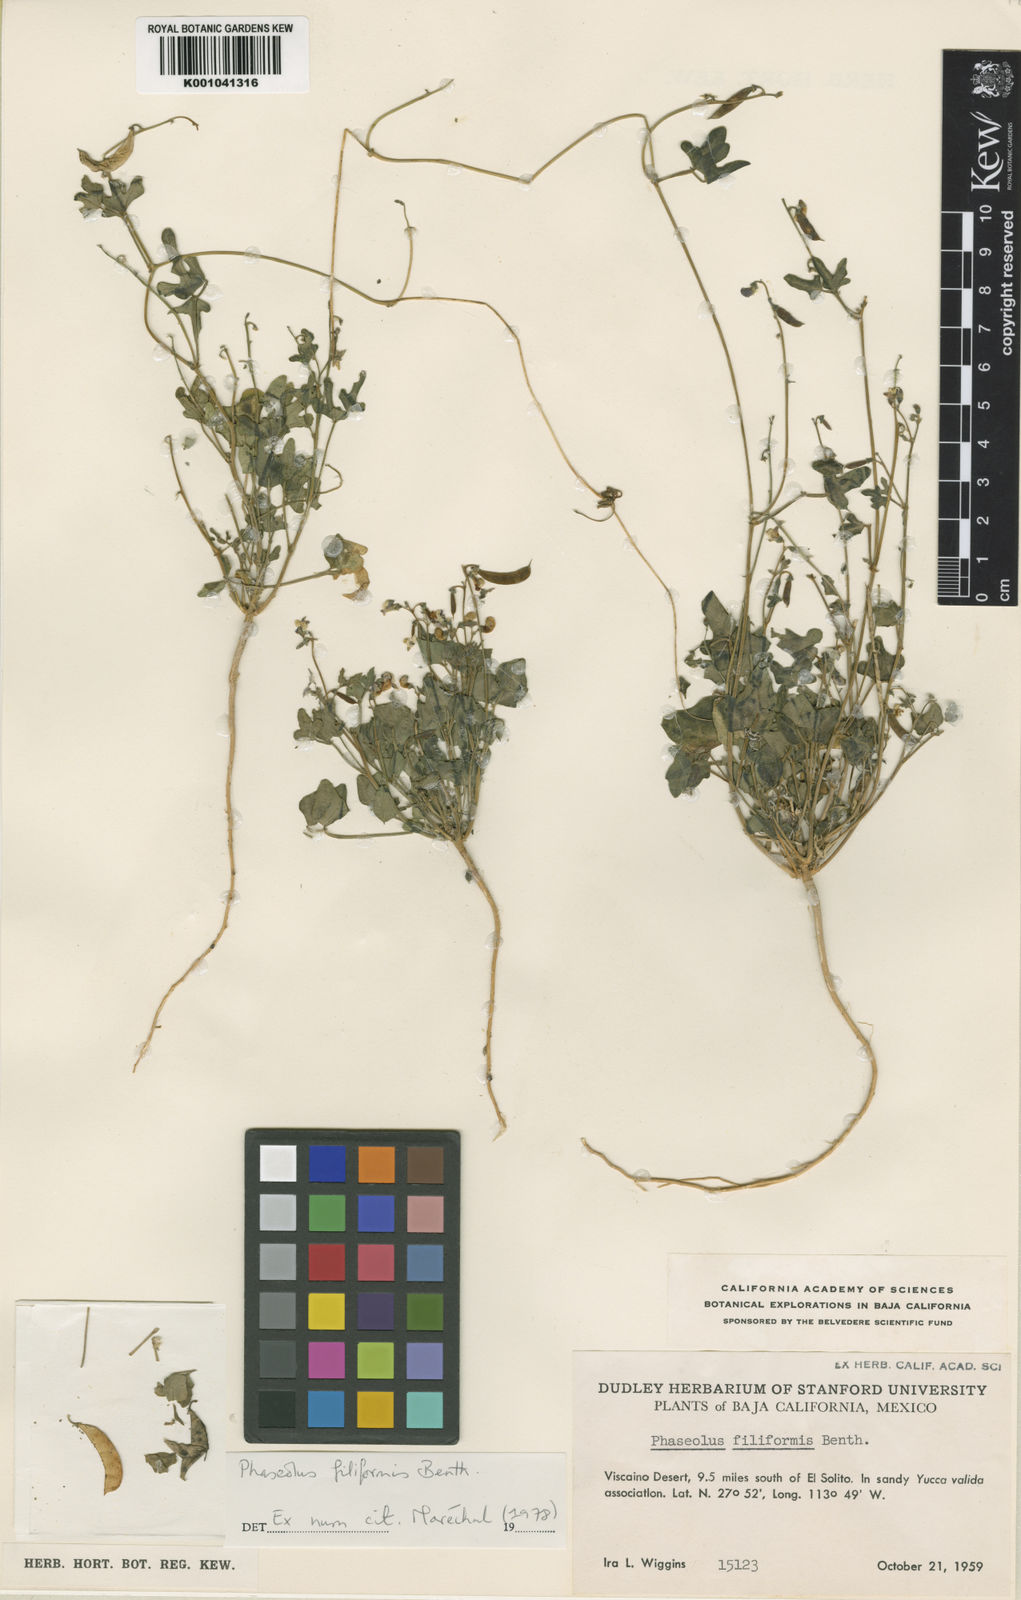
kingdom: Plantae
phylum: Tracheophyta
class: Magnoliopsida
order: Fabales
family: Fabaceae
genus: Phaseolus
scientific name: Phaseolus filiformis
